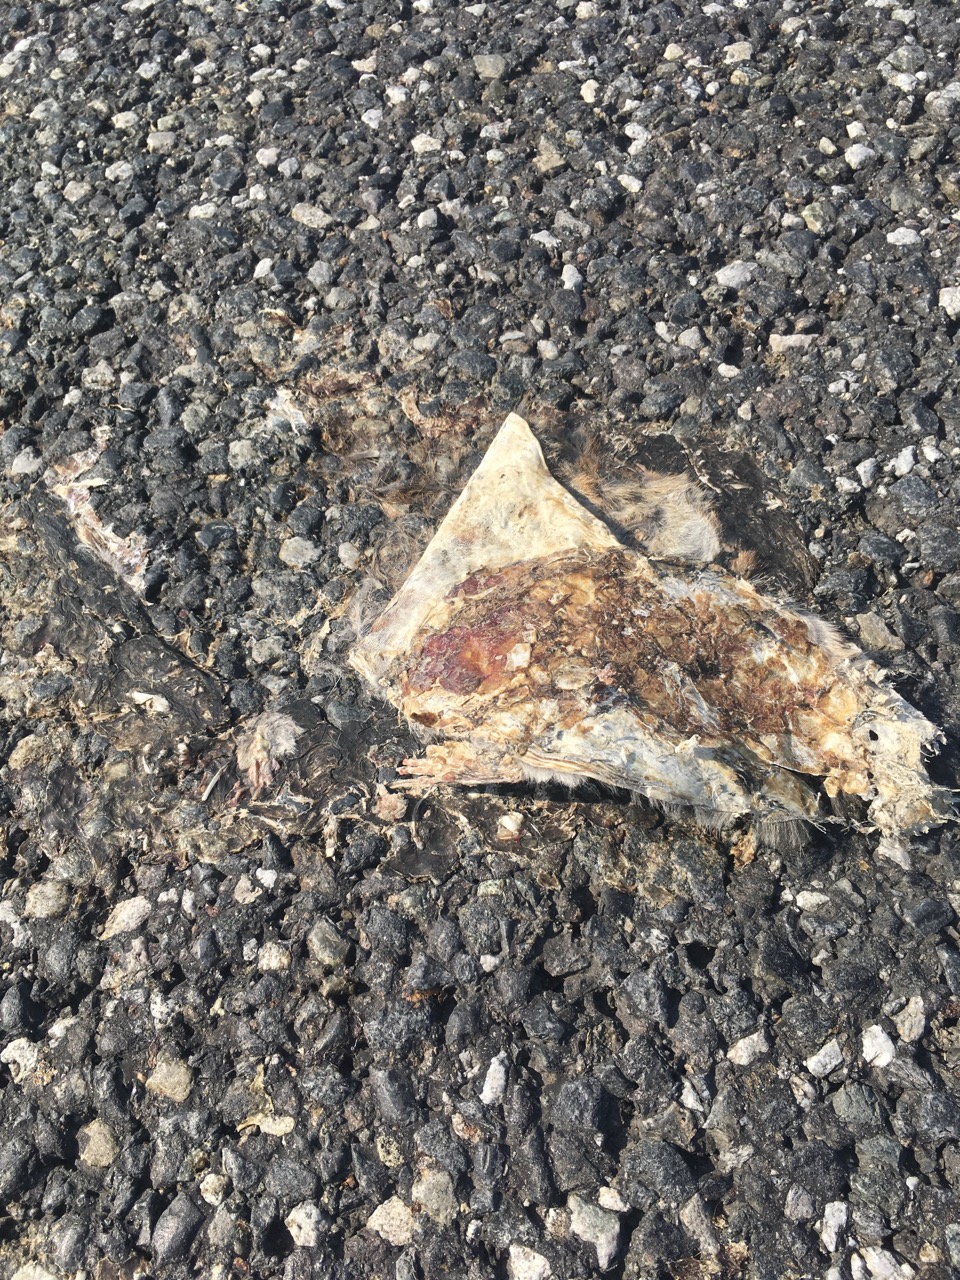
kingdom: Animalia
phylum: Chordata
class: Mammalia
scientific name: Mammalia
